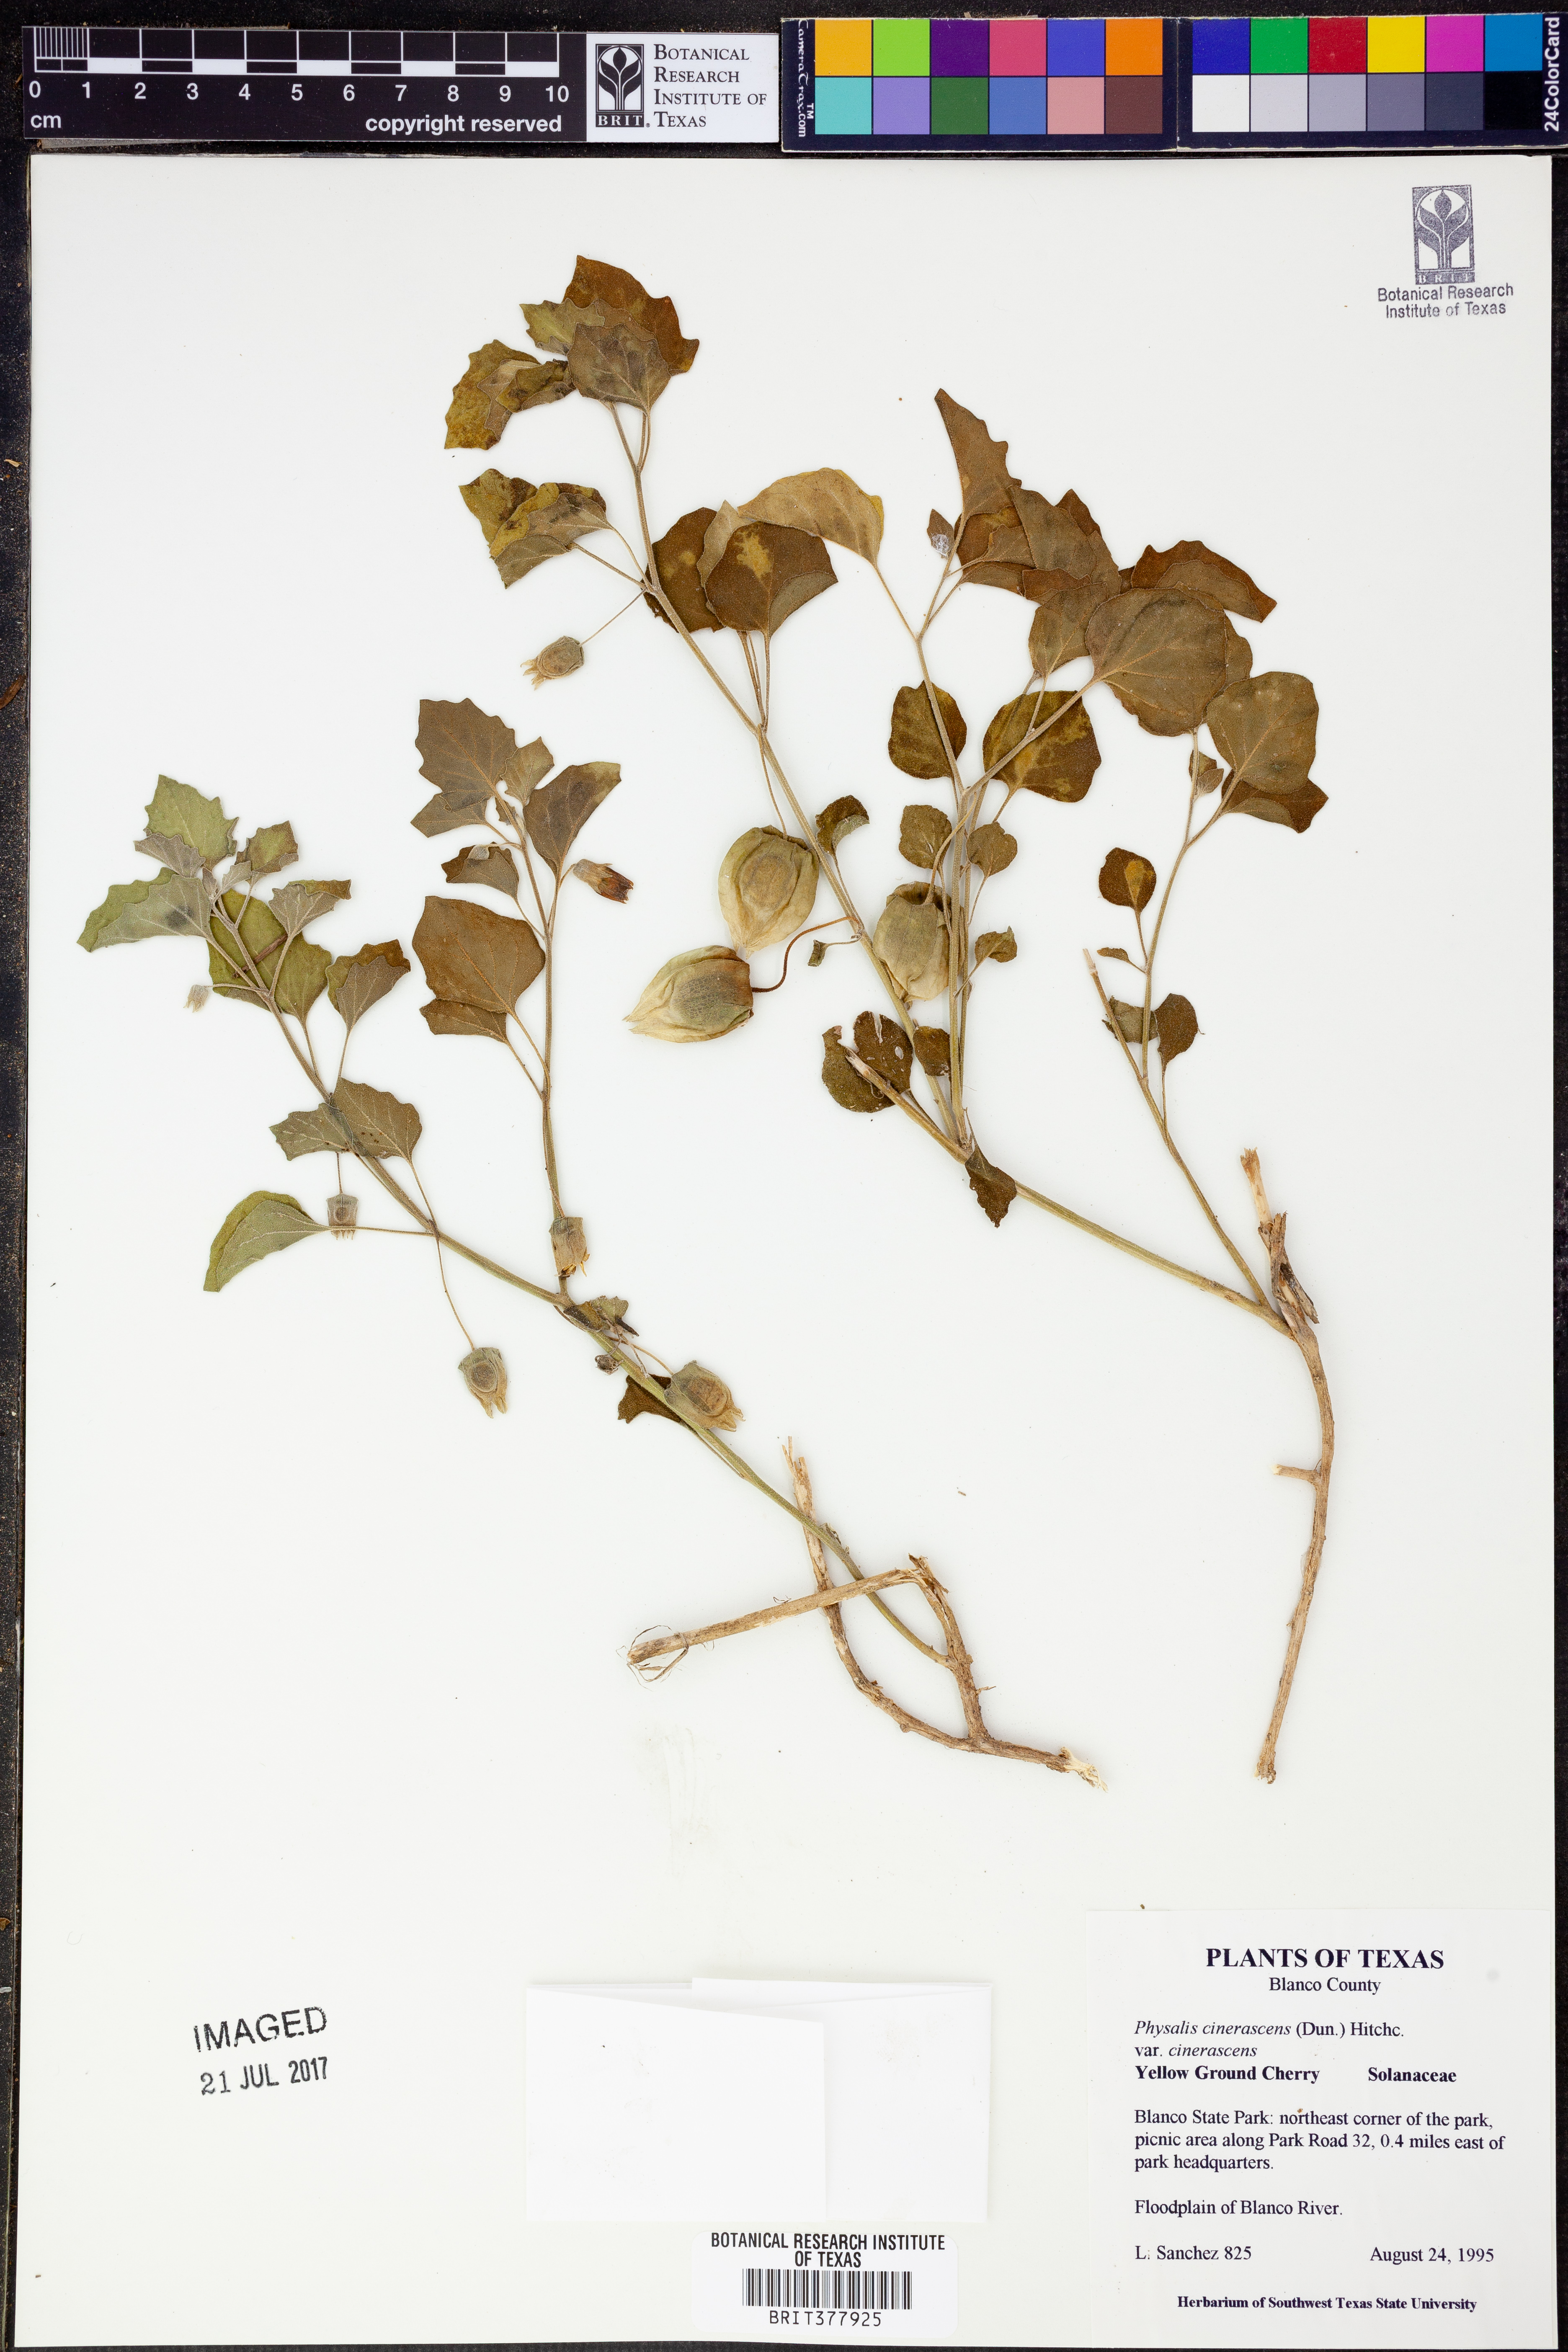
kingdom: Plantae
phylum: Tracheophyta
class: Magnoliopsida
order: Solanales
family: Solanaceae
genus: Physalis
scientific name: Physalis cinerascens
